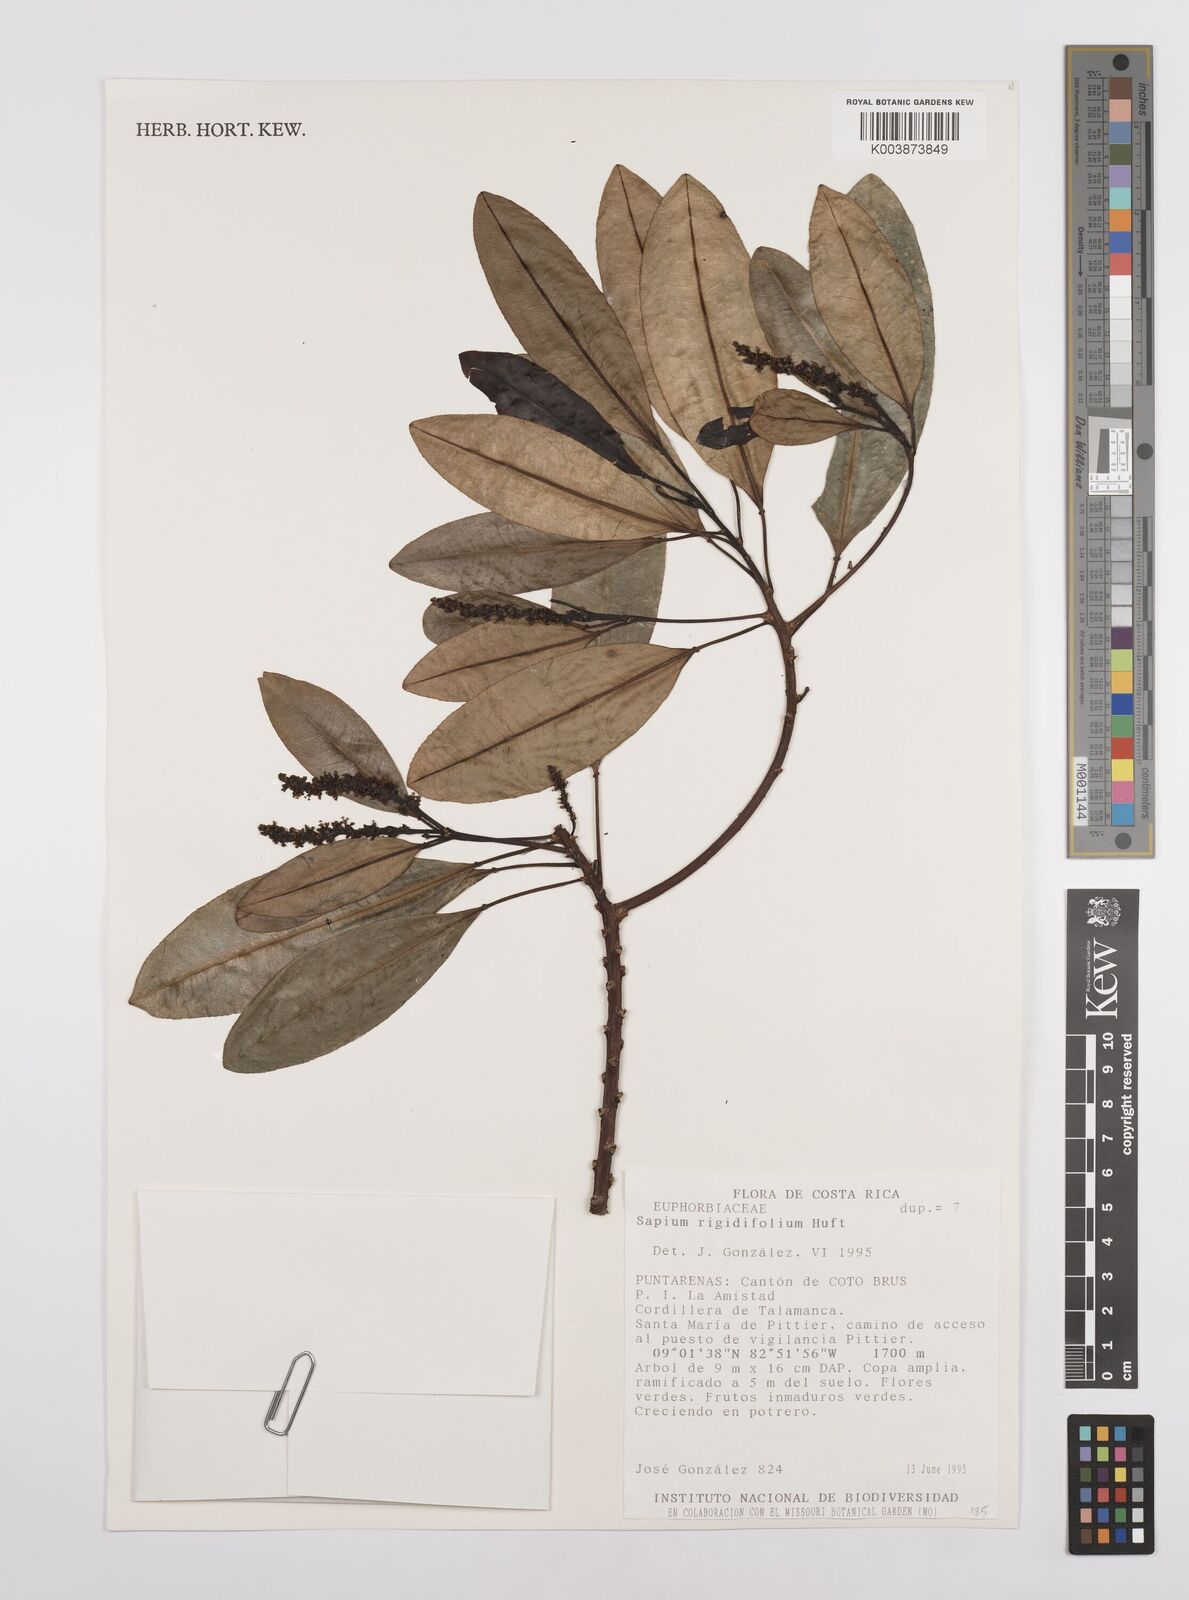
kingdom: Plantae
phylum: Tracheophyta
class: Magnoliopsida
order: Malpighiales
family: Euphorbiaceae
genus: Sapium
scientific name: Sapium rigidifolium
